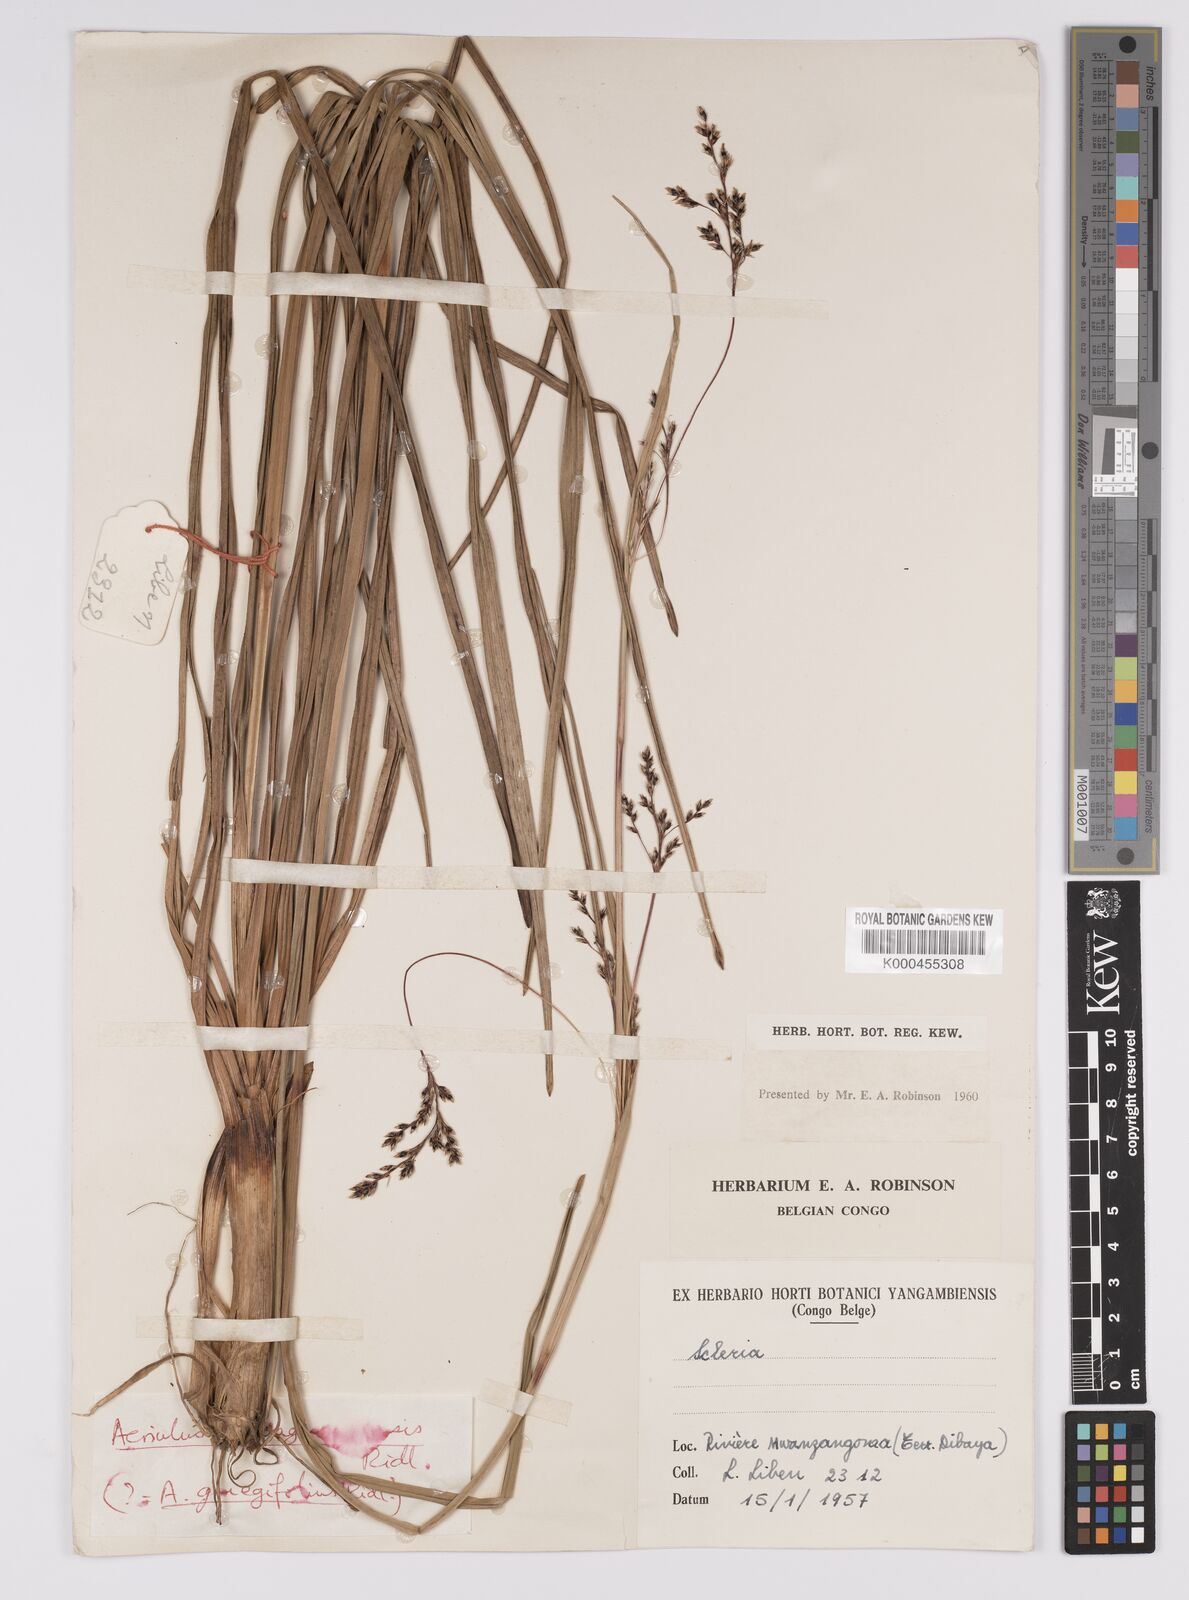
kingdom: Plantae
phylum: Tracheophyta
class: Liliopsida
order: Poales
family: Cyperaceae
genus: Scleria
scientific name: Scleria greigiifolia
